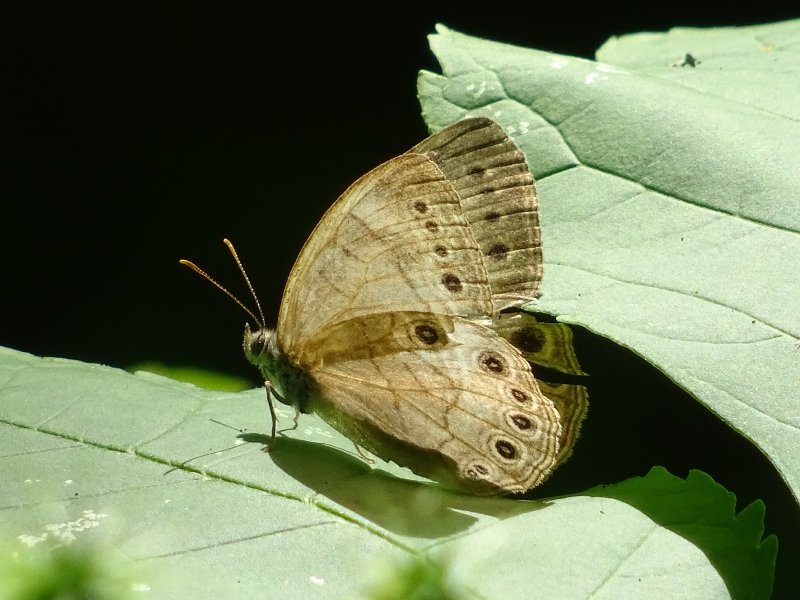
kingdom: Animalia
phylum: Arthropoda
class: Insecta
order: Lepidoptera
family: Nymphalidae
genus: Lethe
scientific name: Lethe eurydice
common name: Appalachian Eyed Brown
